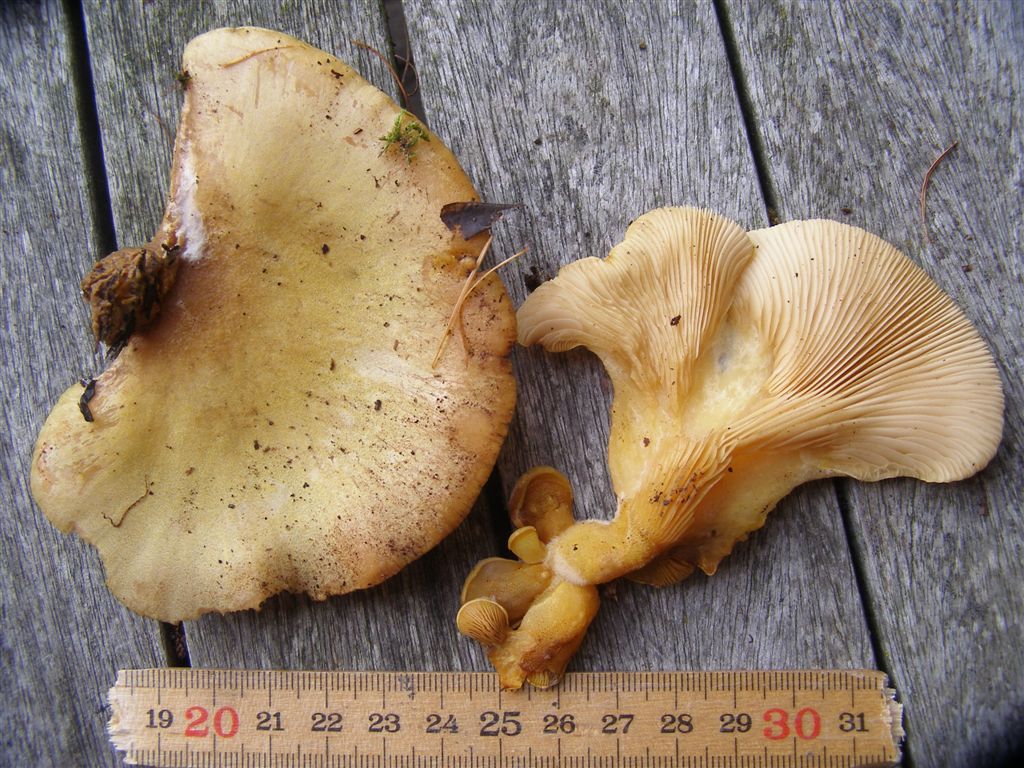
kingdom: Fungi
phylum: Basidiomycota
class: Agaricomycetes
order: Agaricales
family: Sarcomyxaceae
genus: Sarcomyxa
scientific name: Sarcomyxa serotina
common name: gummihat
